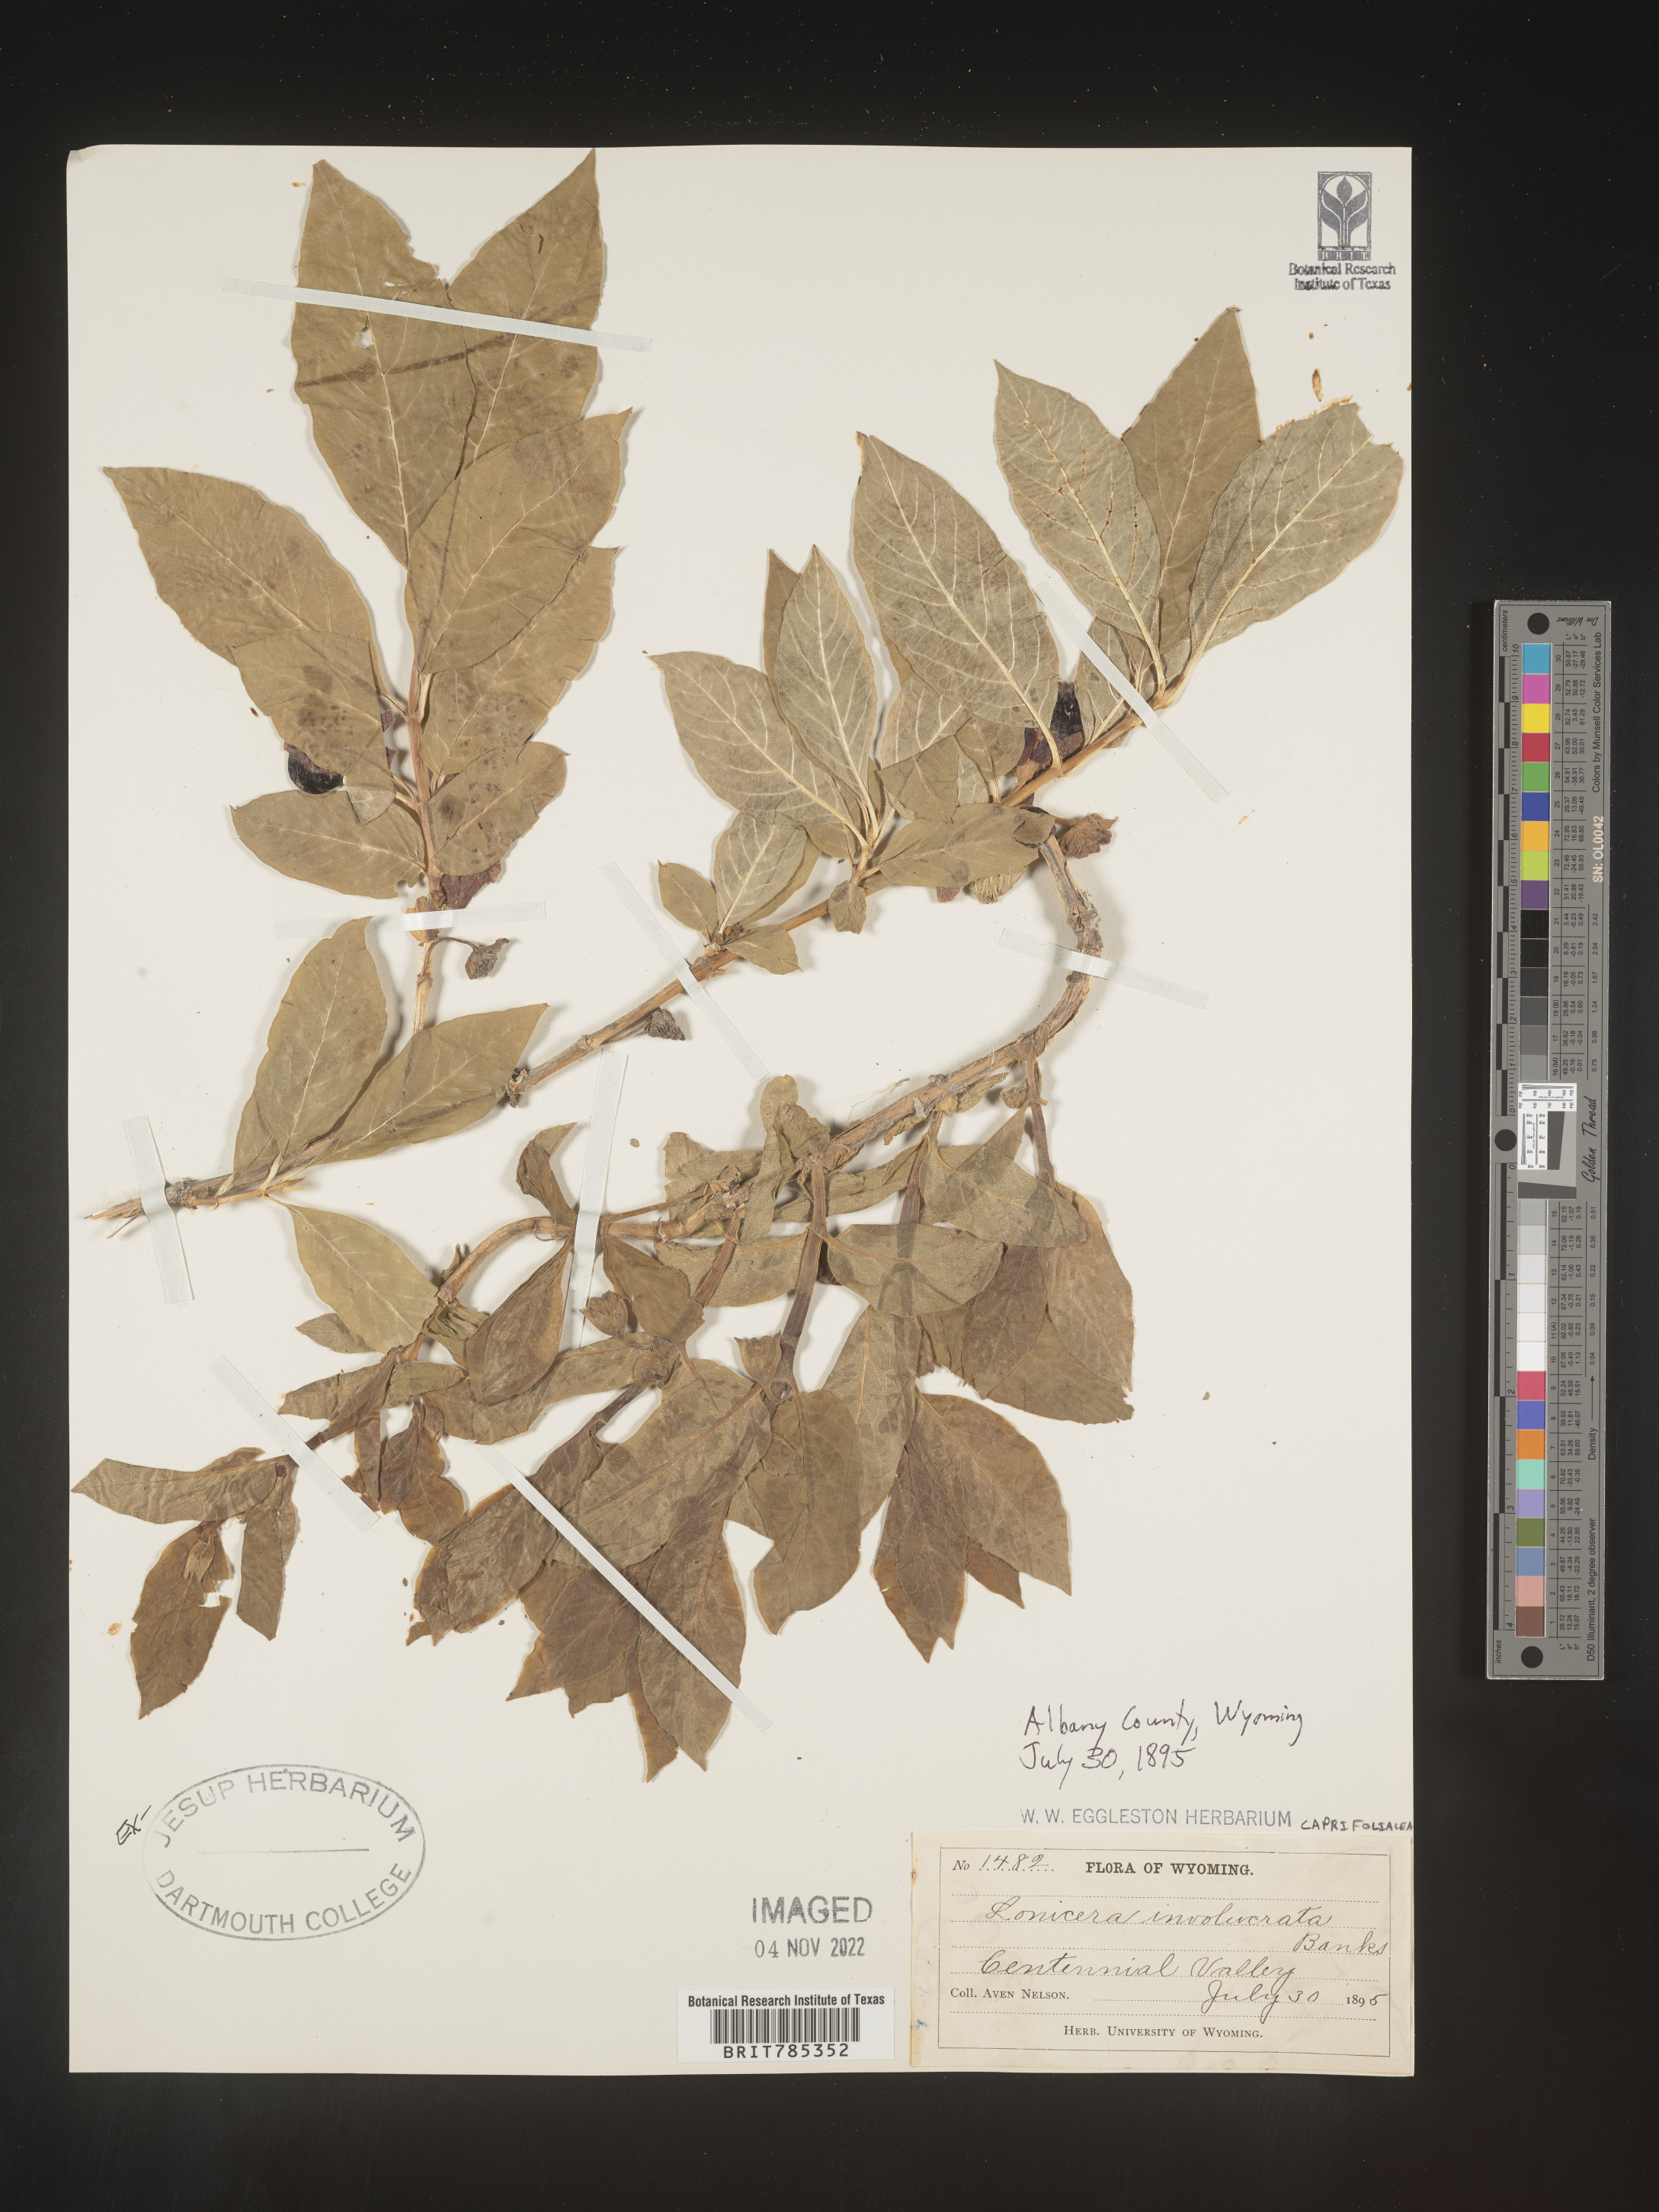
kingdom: Plantae
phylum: Tracheophyta
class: Magnoliopsida
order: Dipsacales
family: Caprifoliaceae
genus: Lonicera
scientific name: Lonicera involucrata
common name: Californian honeysuckle
